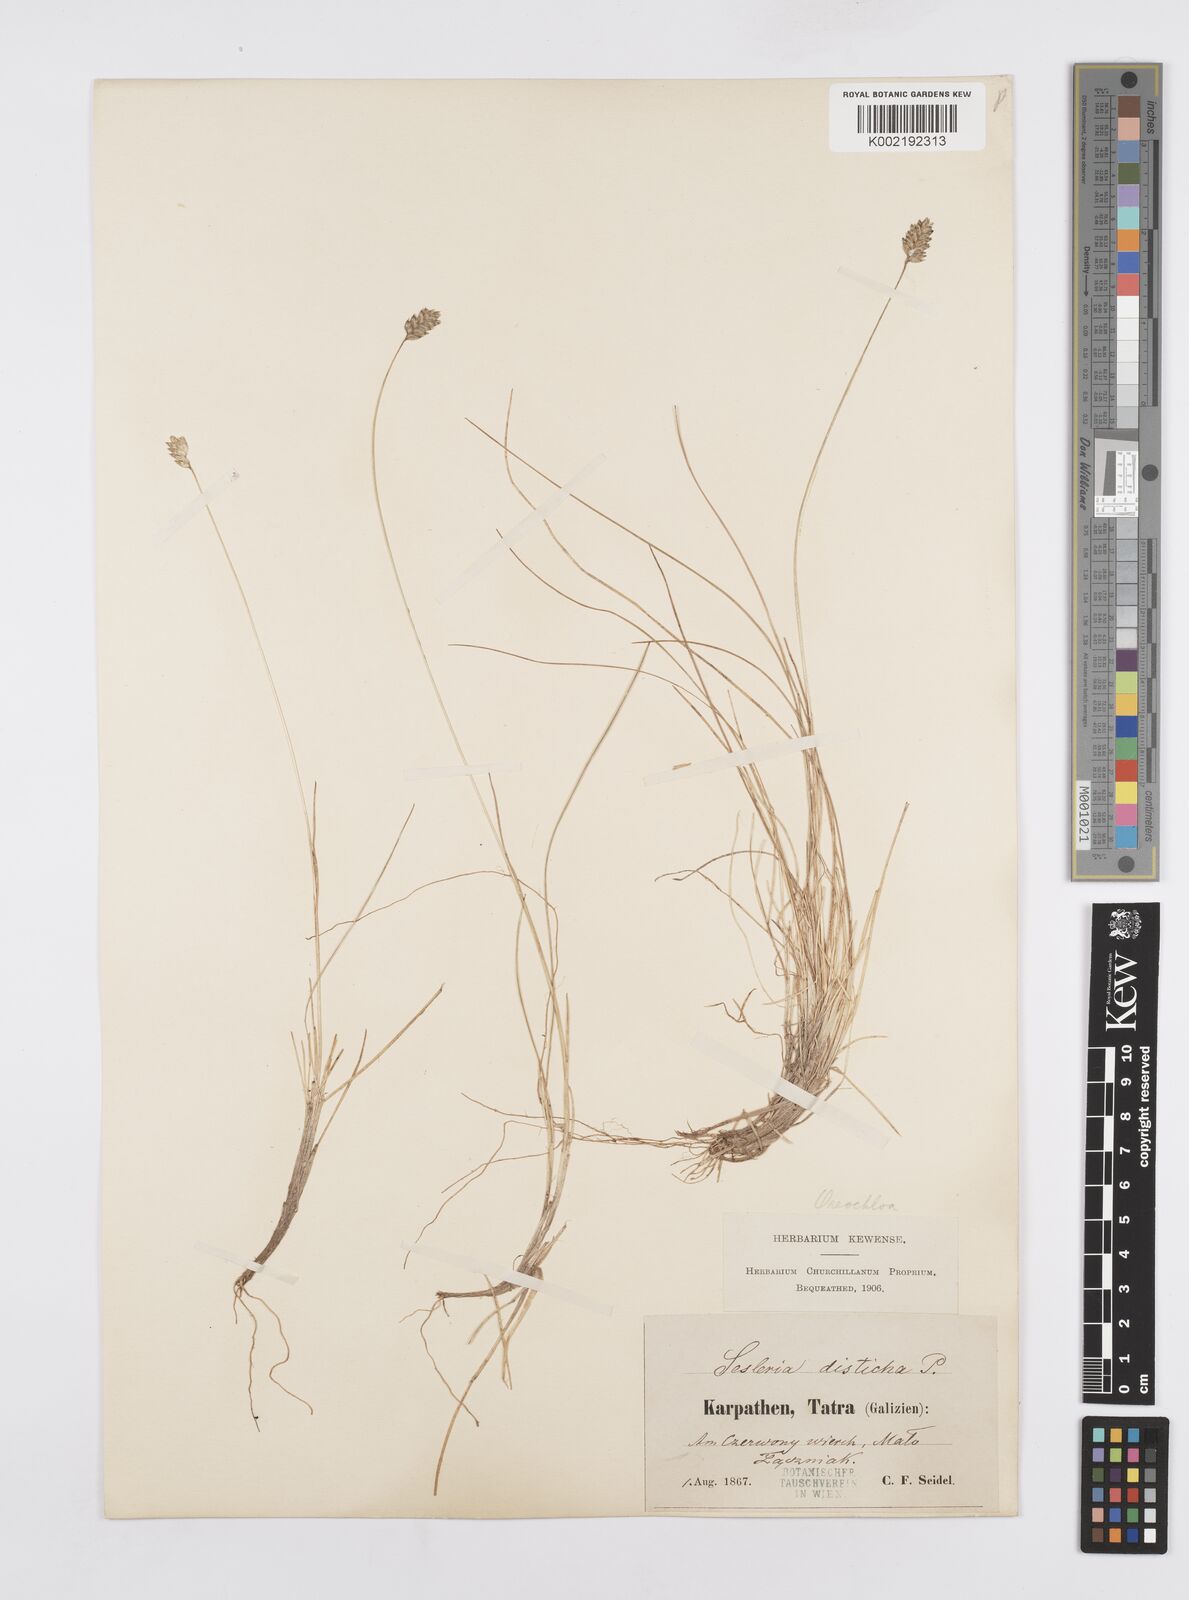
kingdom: Plantae
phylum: Tracheophyta
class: Liliopsida
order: Poales
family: Poaceae
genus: Oreochloa
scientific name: Oreochloa disticha
